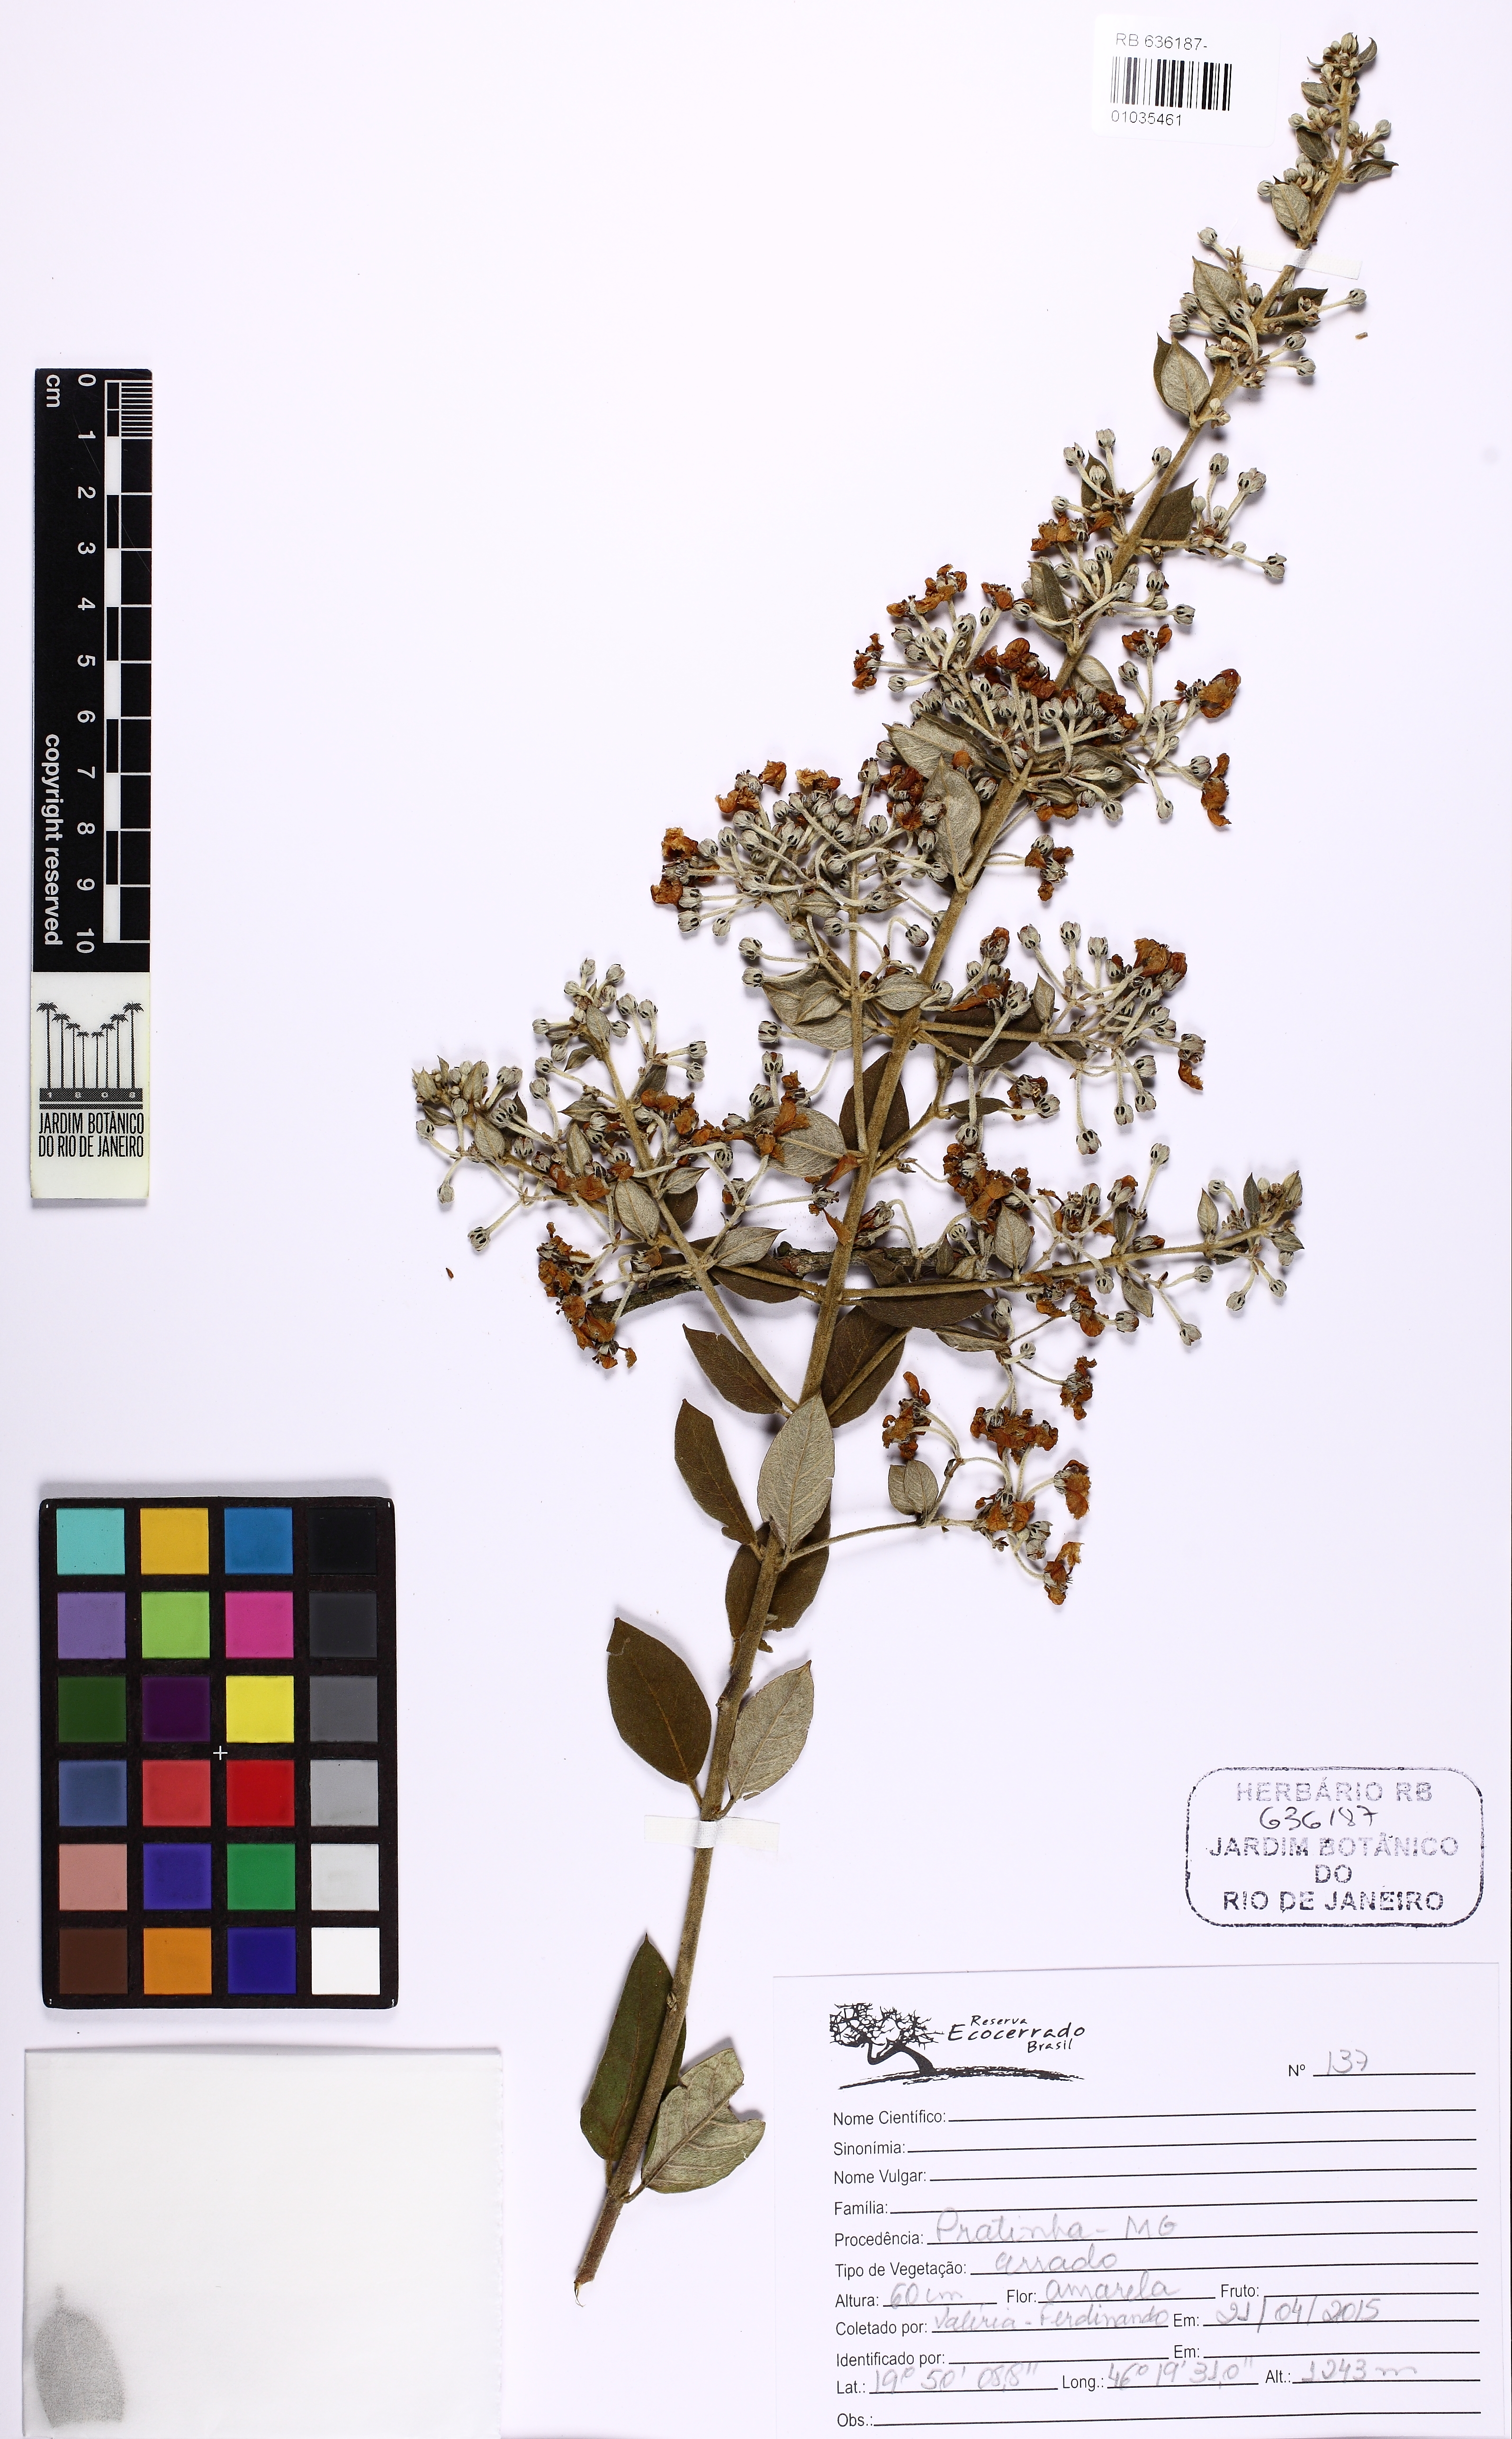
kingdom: Plantae
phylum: Tracheophyta
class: Magnoliopsida
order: Malpighiales
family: Malpighiaceae
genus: Banisteriopsis
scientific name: Banisteriopsis
